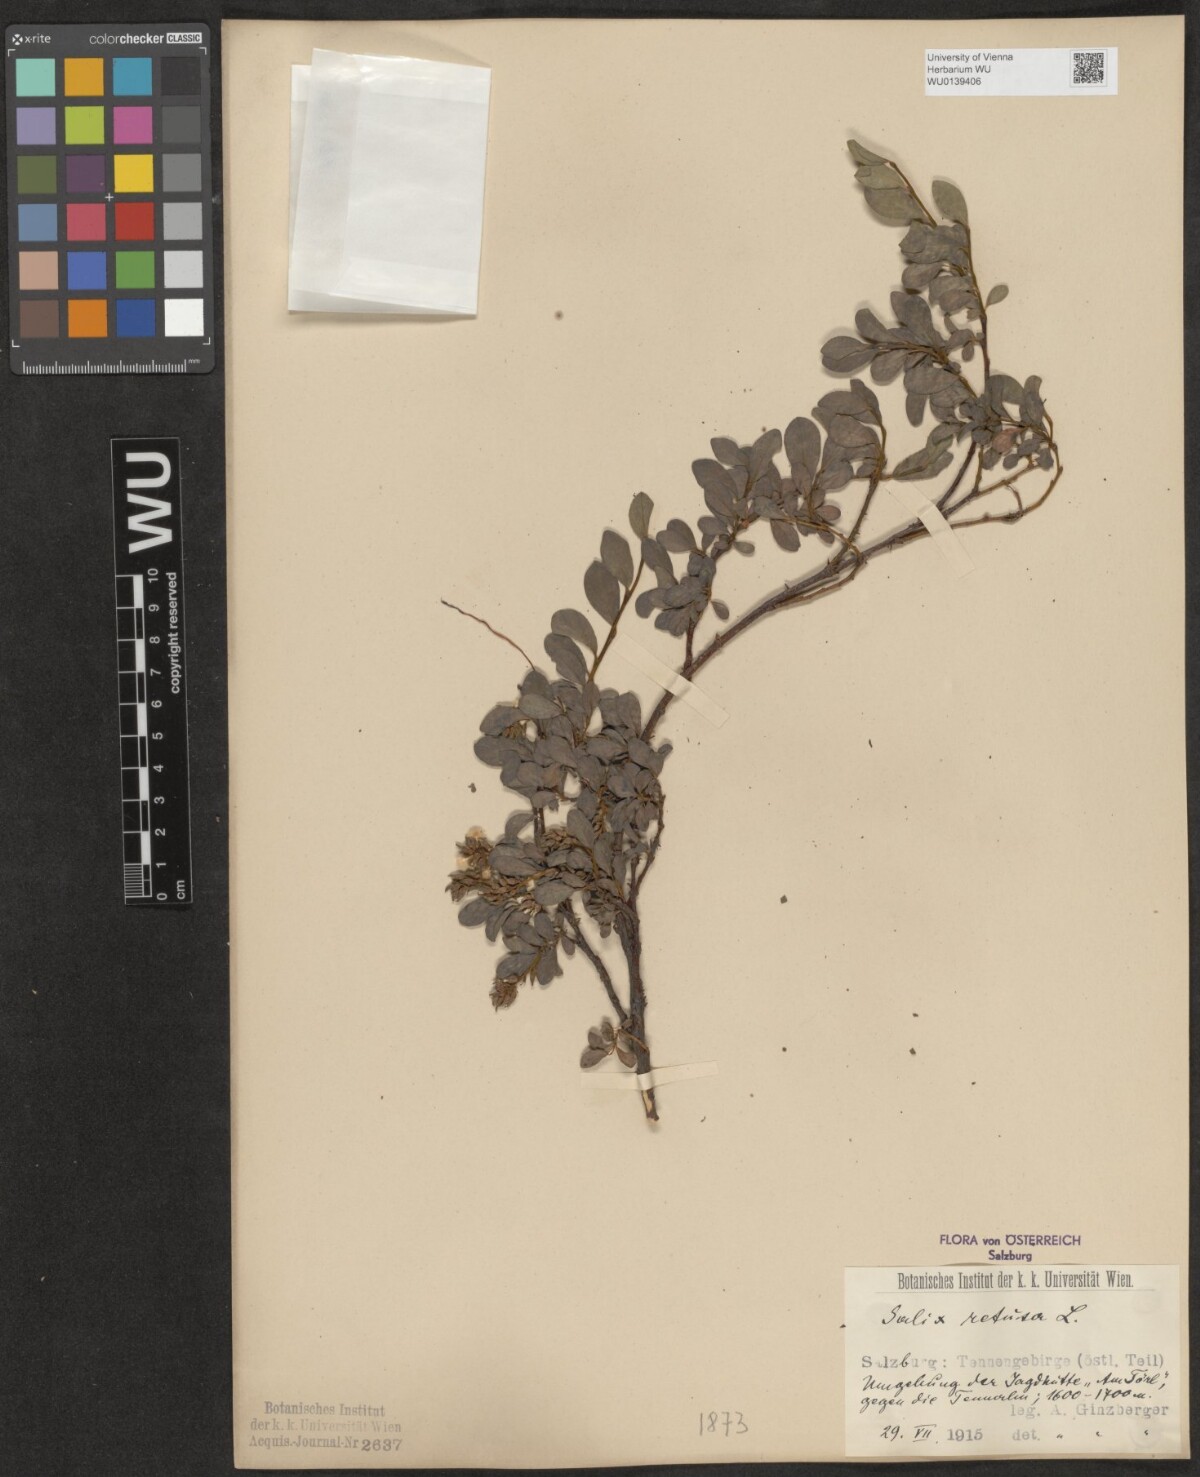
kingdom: Plantae
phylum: Tracheophyta
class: Magnoliopsida
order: Malpighiales
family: Salicaceae
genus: Salix
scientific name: Salix retusa
